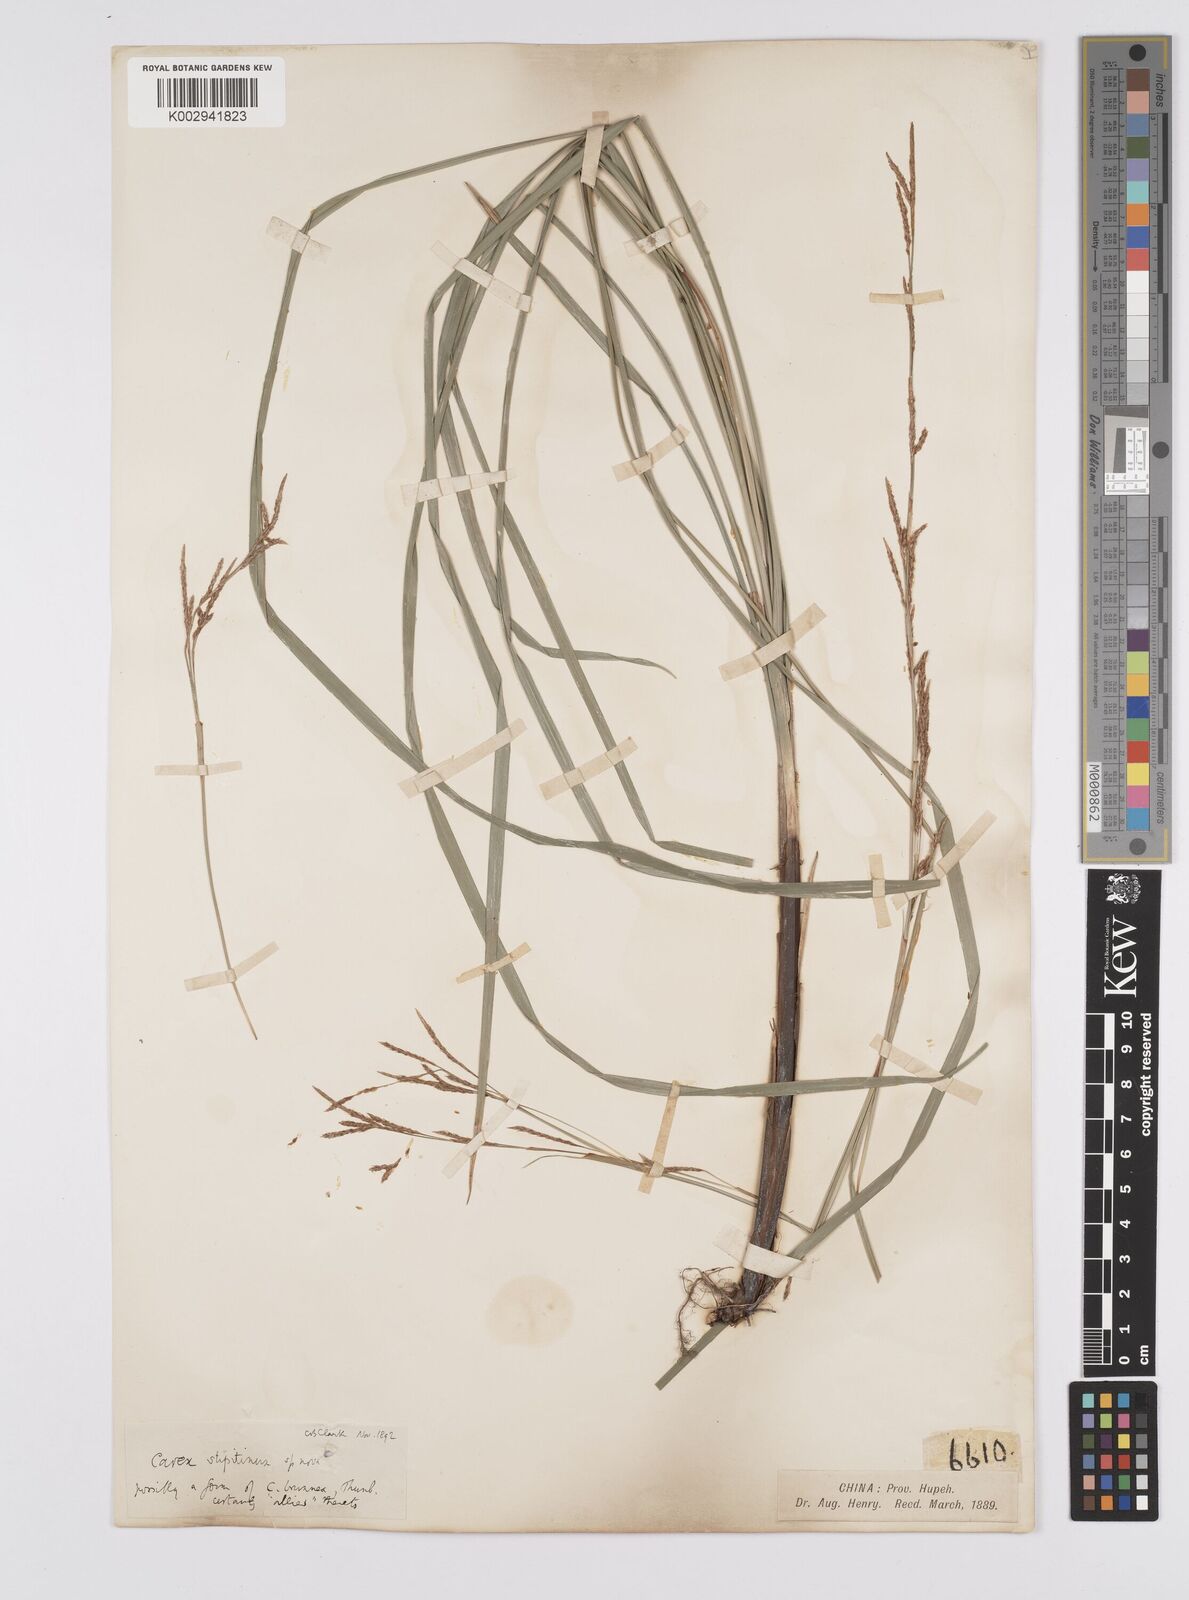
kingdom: Plantae
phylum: Tracheophyta
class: Liliopsida
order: Poales
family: Cyperaceae
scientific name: Cyperaceae
